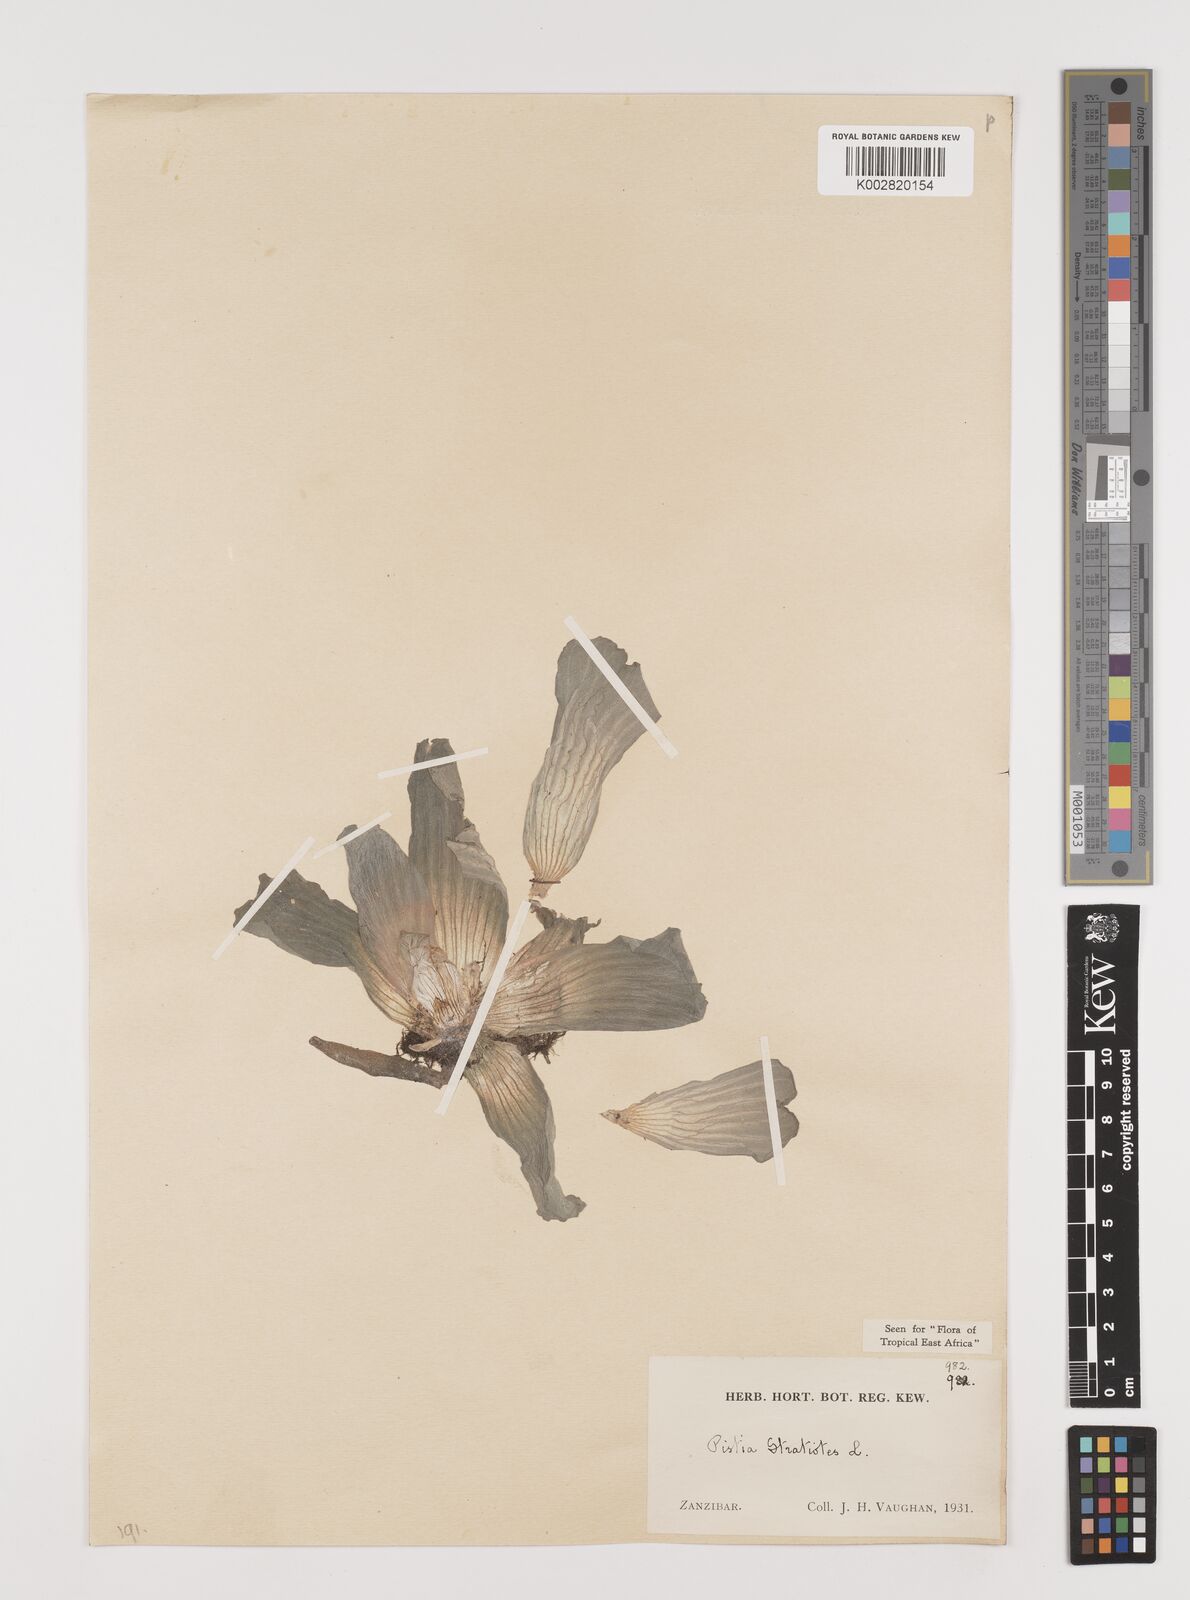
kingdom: Plantae
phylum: Tracheophyta
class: Liliopsida
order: Alismatales
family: Araceae
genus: Pistia
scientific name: Pistia stratiotes
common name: Water lettuce
